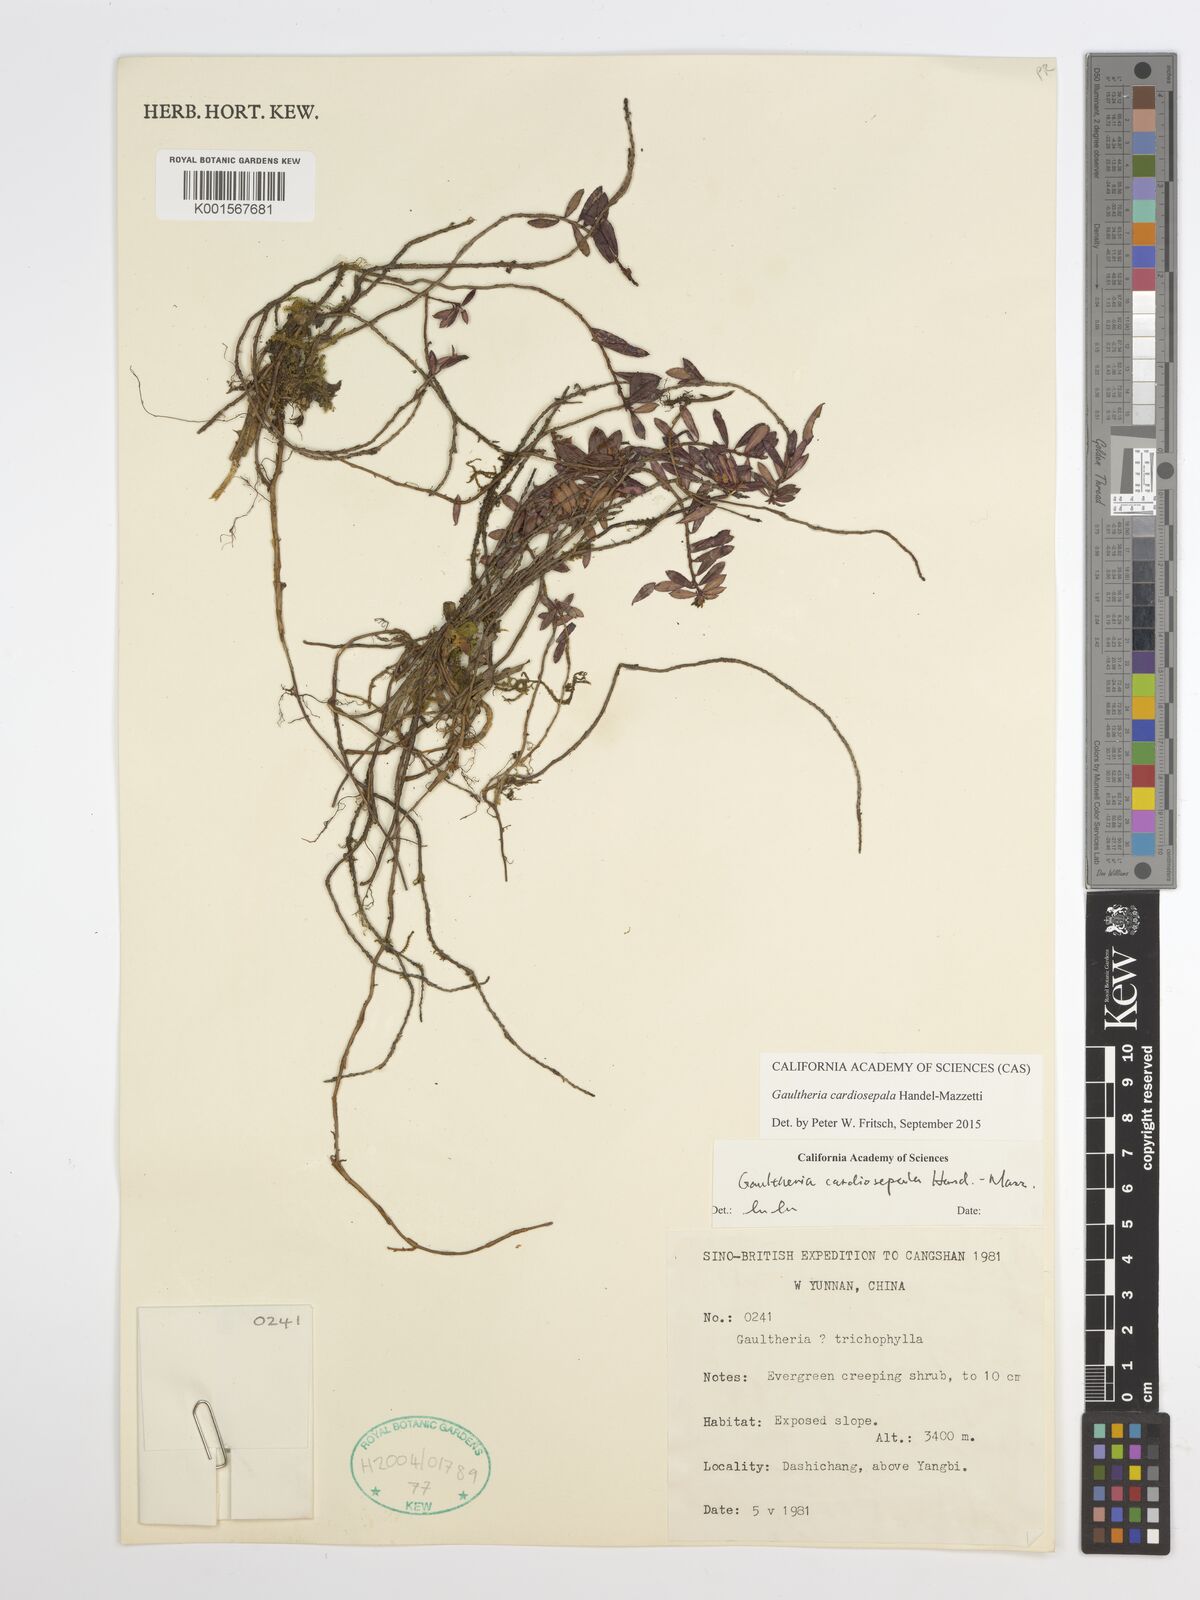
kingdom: Plantae
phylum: Tracheophyta
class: Magnoliopsida
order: Ericales
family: Ericaceae
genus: Gaultheria
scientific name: Gaultheria cardiosepala
